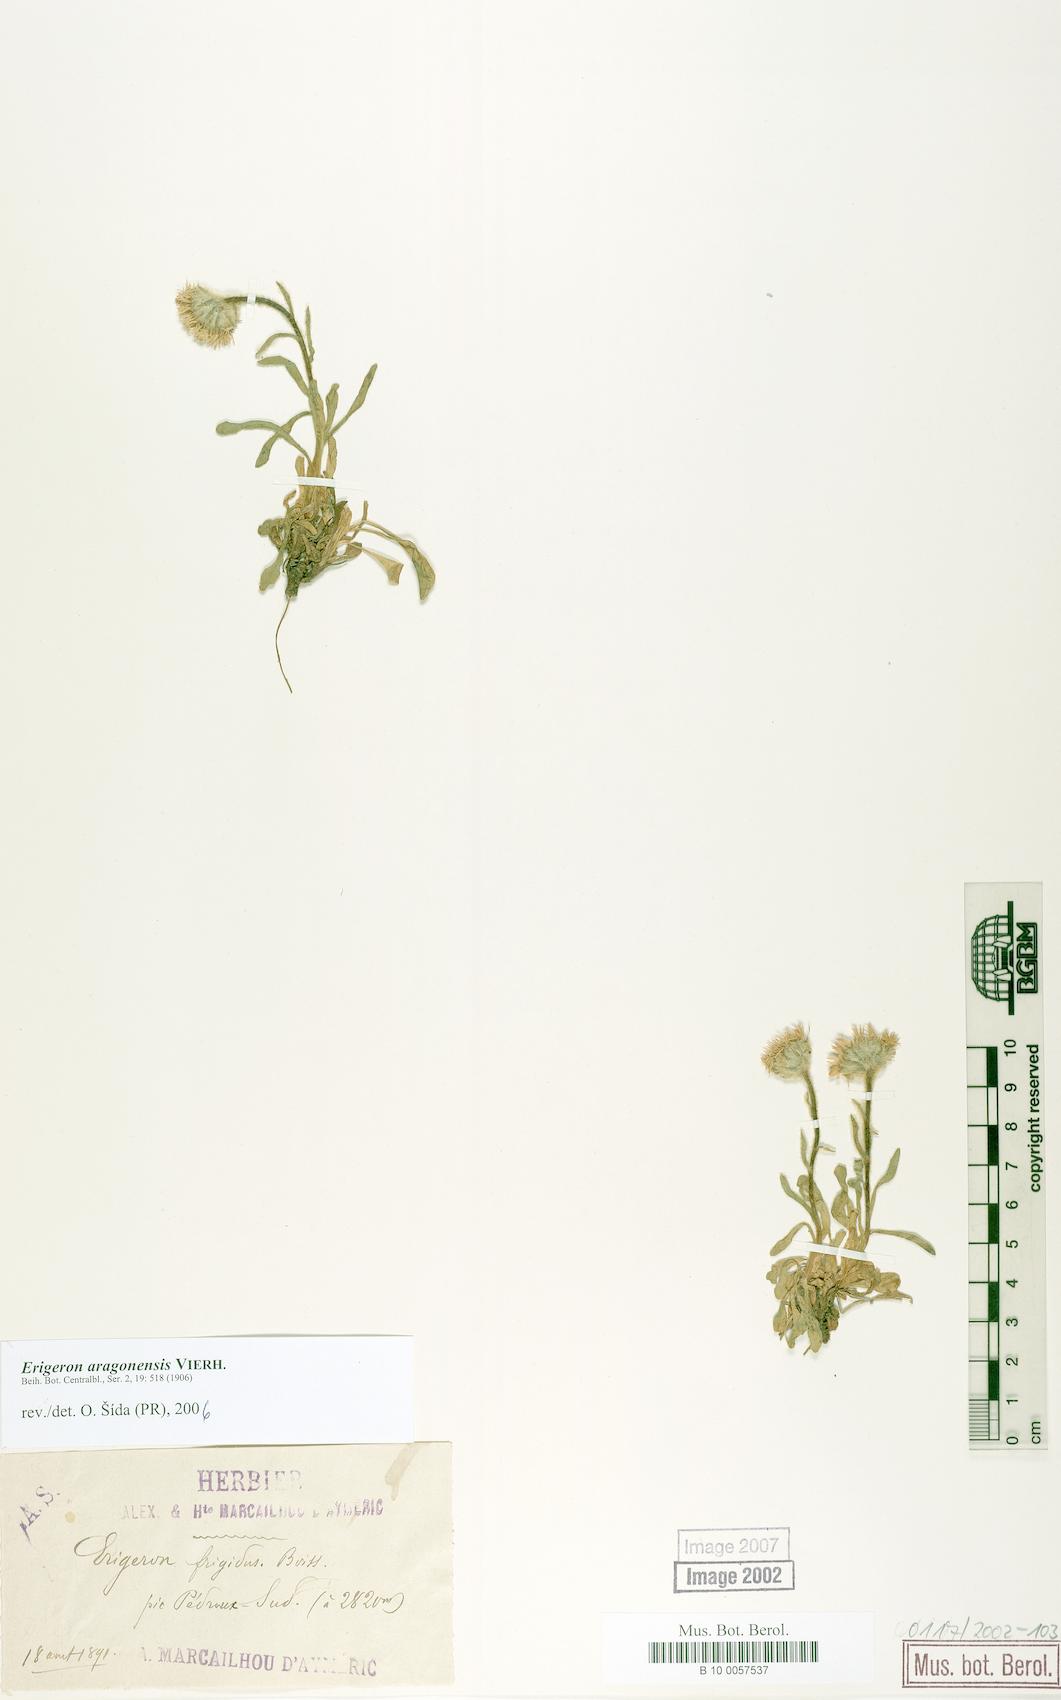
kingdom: Plantae
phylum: Tracheophyta
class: Magnoliopsida
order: Asterales
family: Asteraceae
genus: Erigeron
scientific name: Erigeron aragonensis
